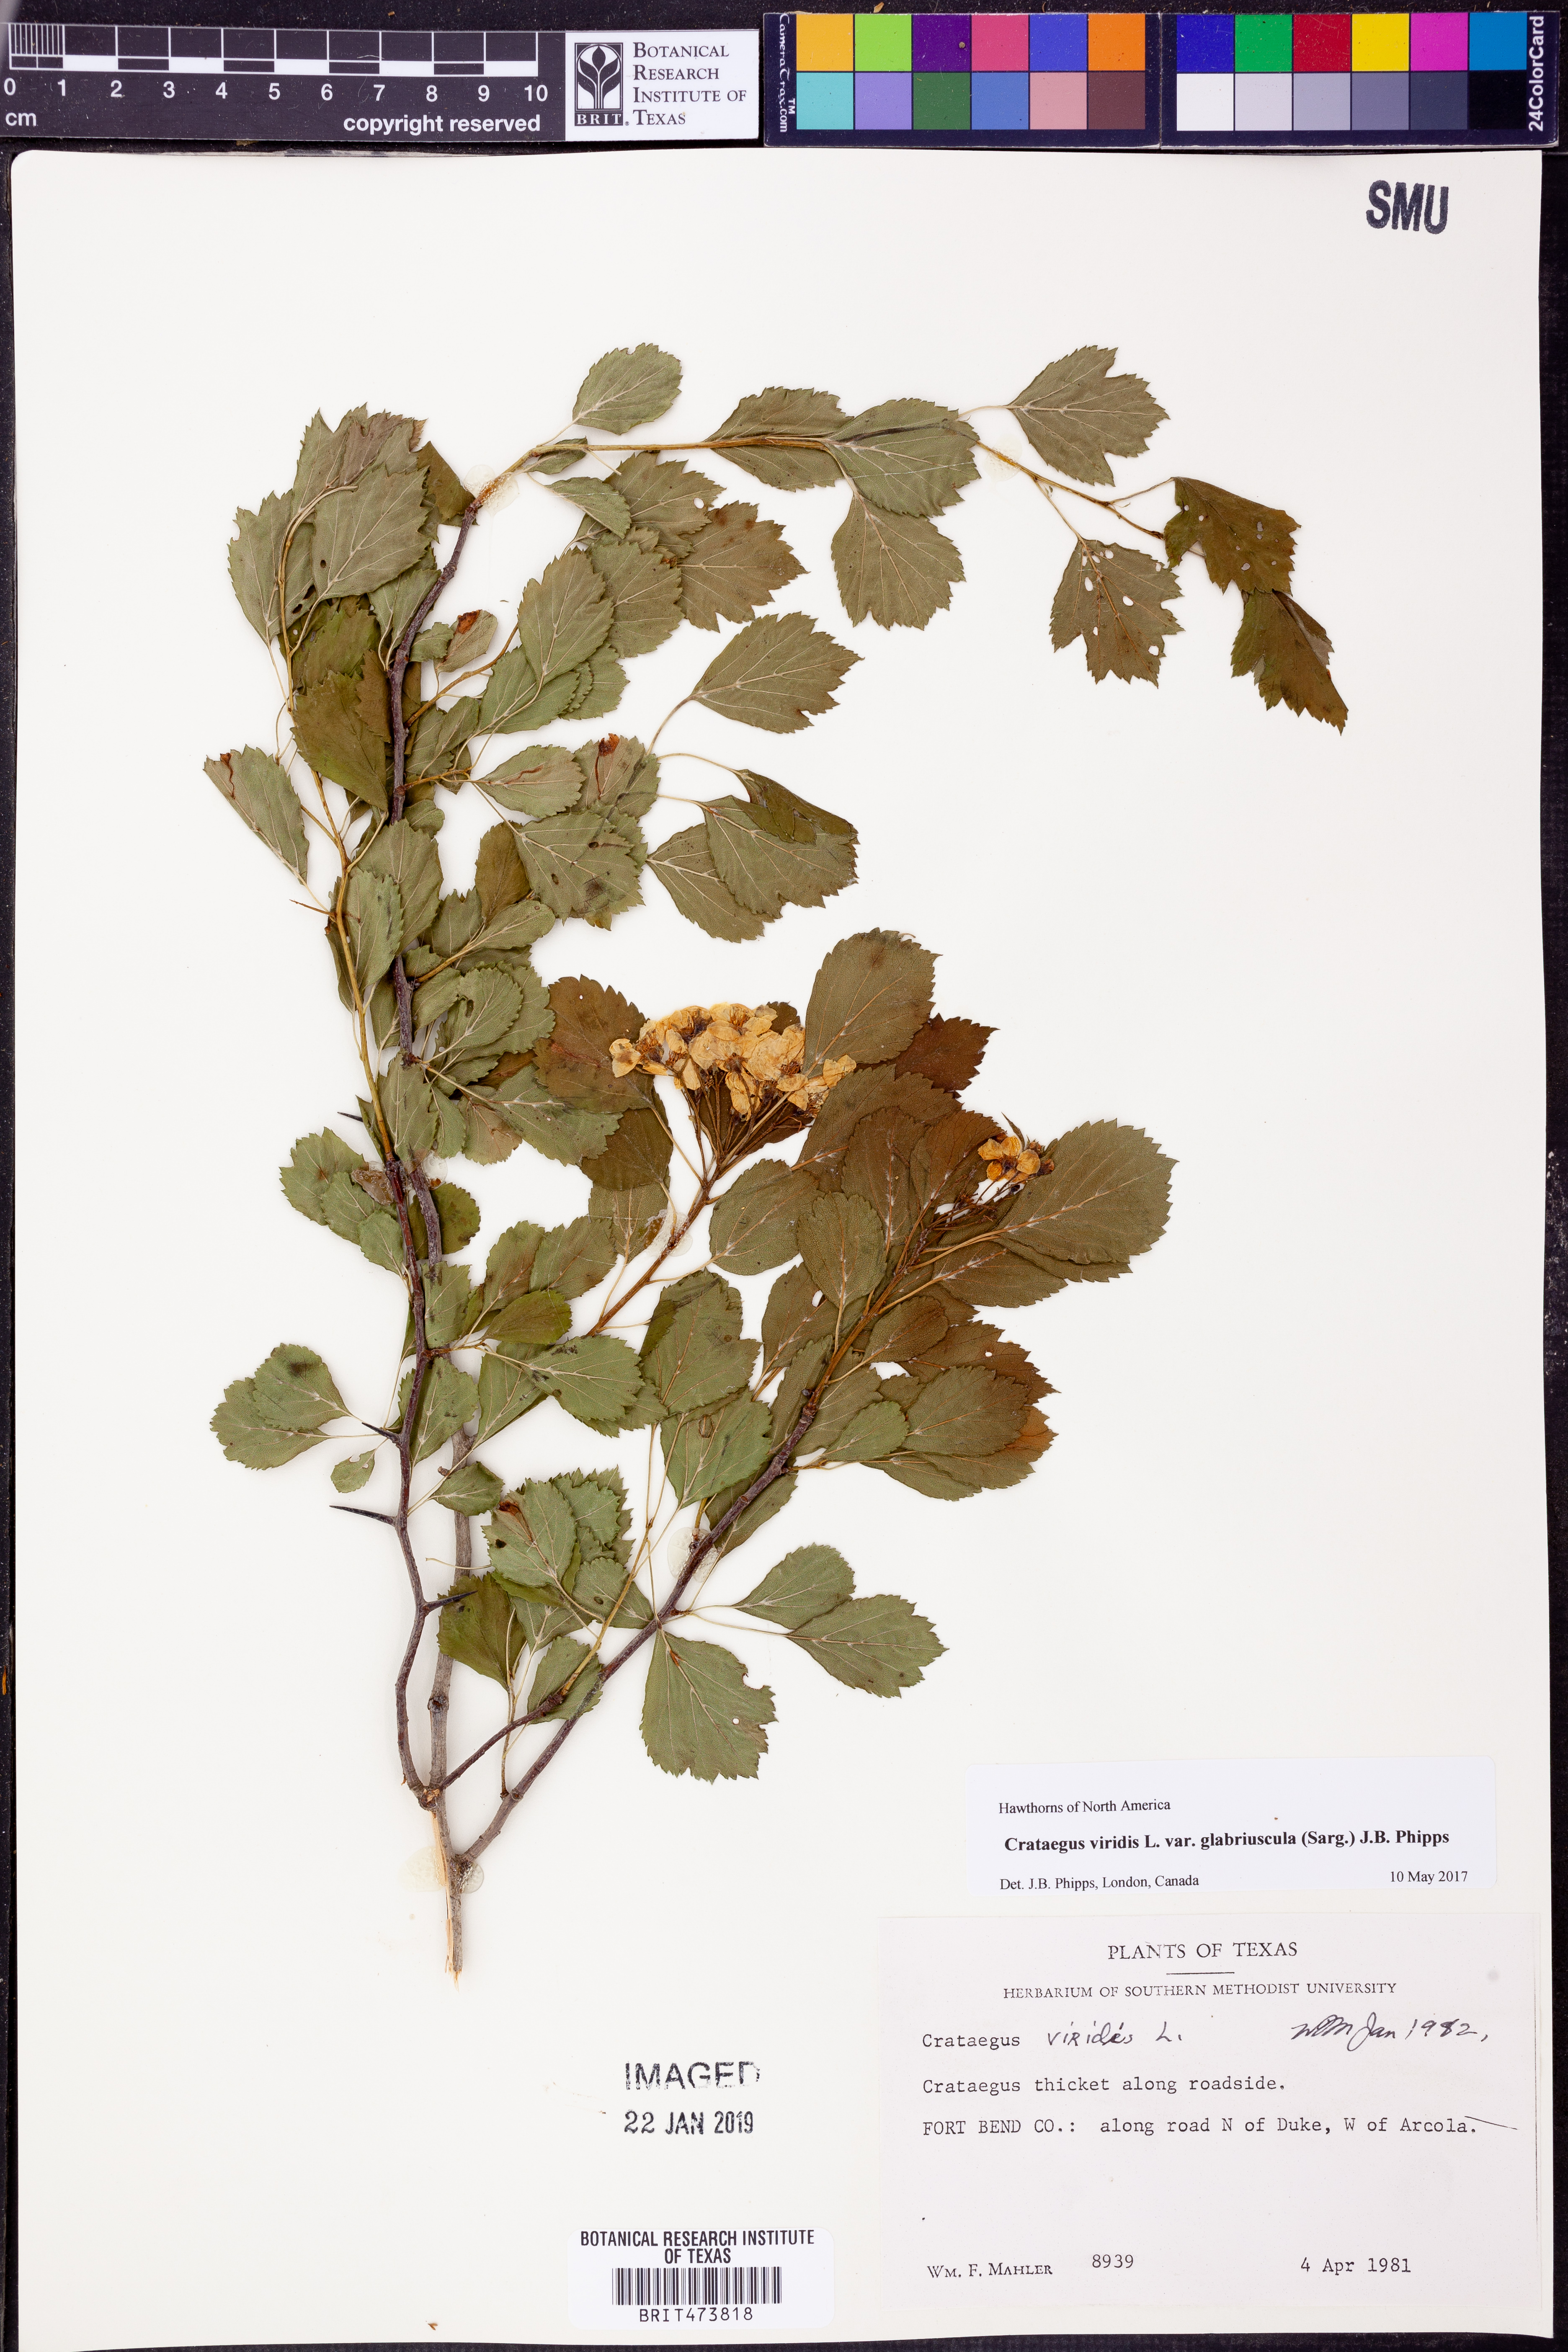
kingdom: Plantae
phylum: Tracheophyta
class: Magnoliopsida
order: Rosales
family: Rosaceae
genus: Crataegus
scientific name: Crataegus viridis
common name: Southernthorn
